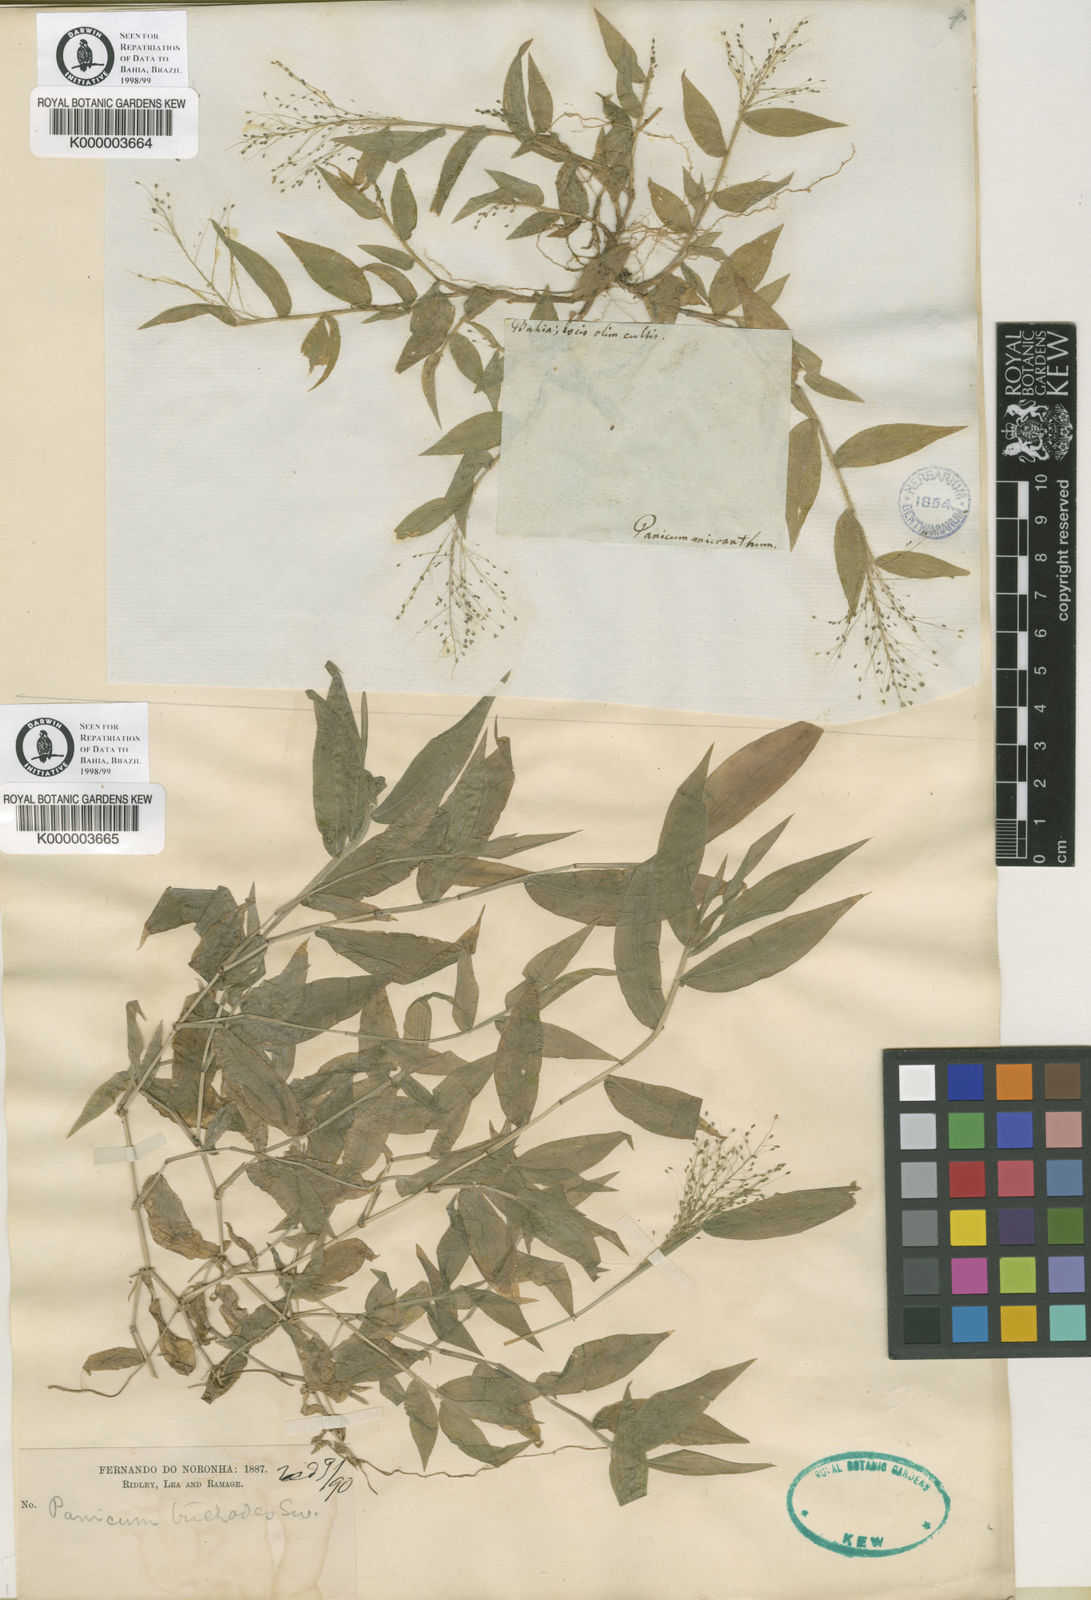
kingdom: Plantae
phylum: Tracheophyta
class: Liliopsida
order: Poales
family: Poaceae
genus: Panicum
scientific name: Panicum
